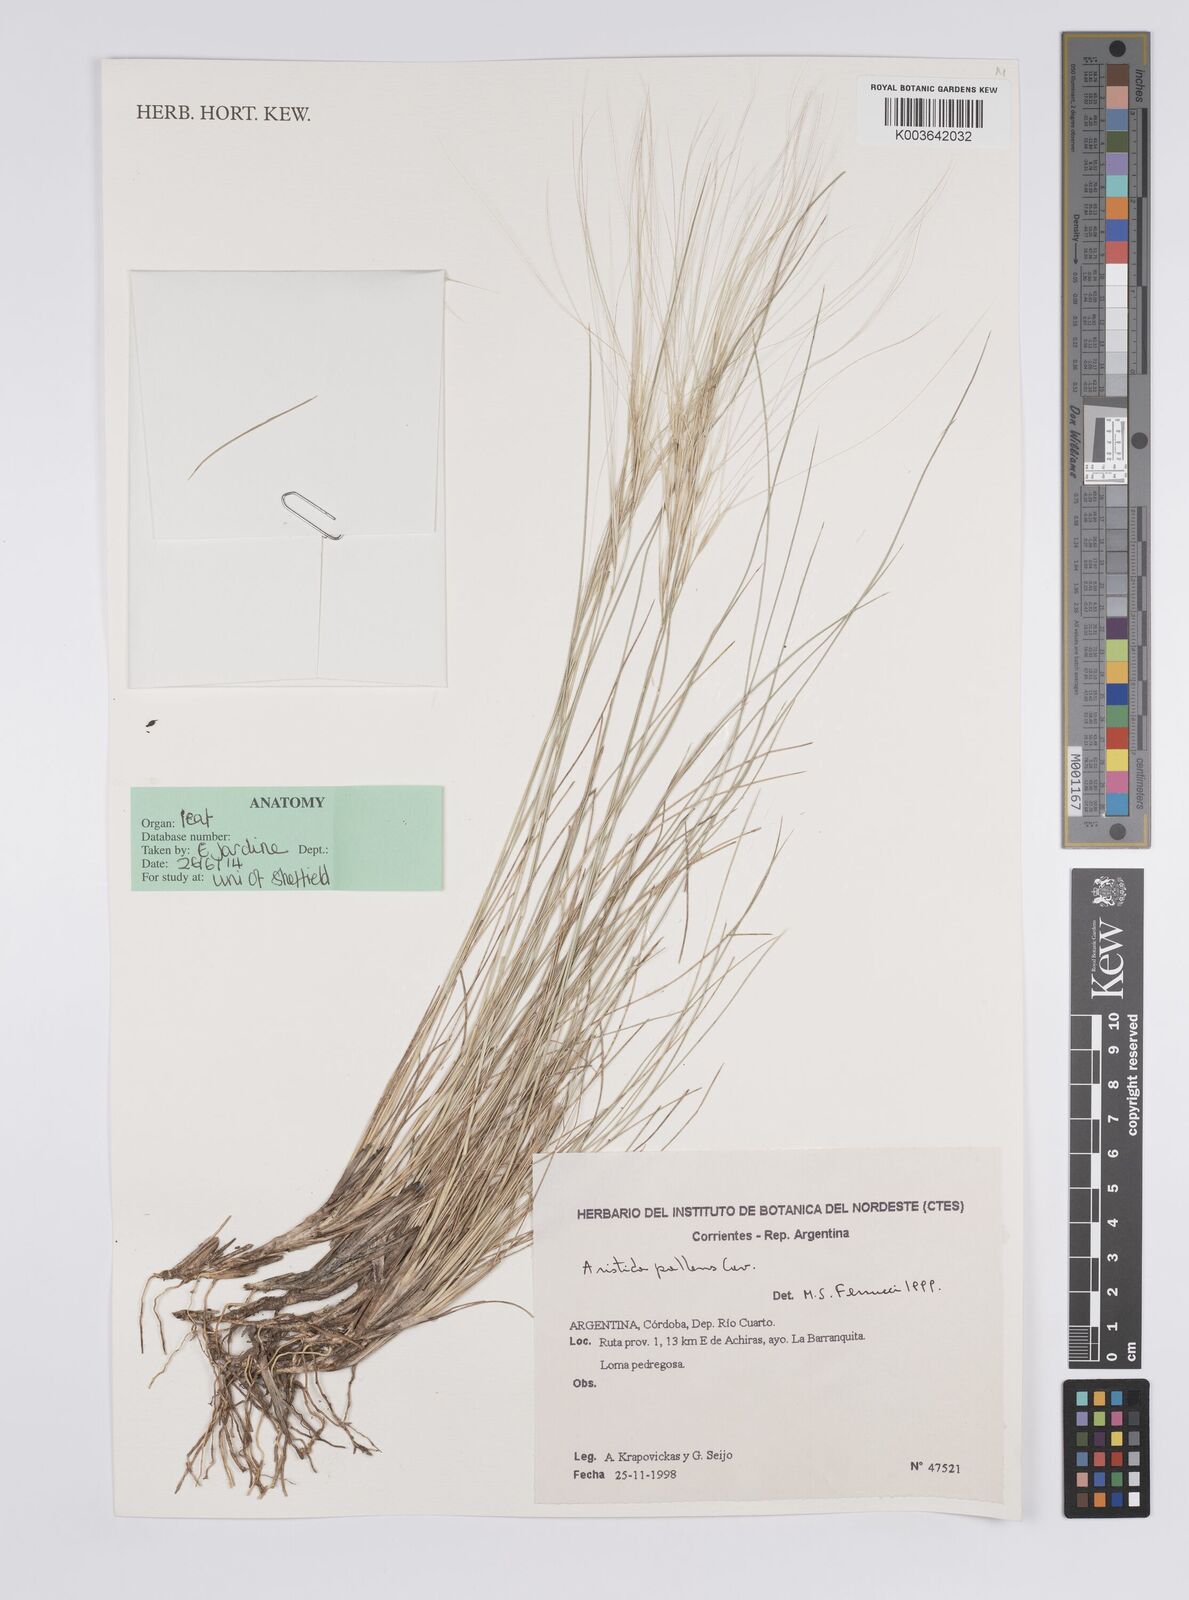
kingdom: Plantae
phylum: Tracheophyta
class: Liliopsida
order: Poales
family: Poaceae
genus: Aristida
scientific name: Aristida pallens
